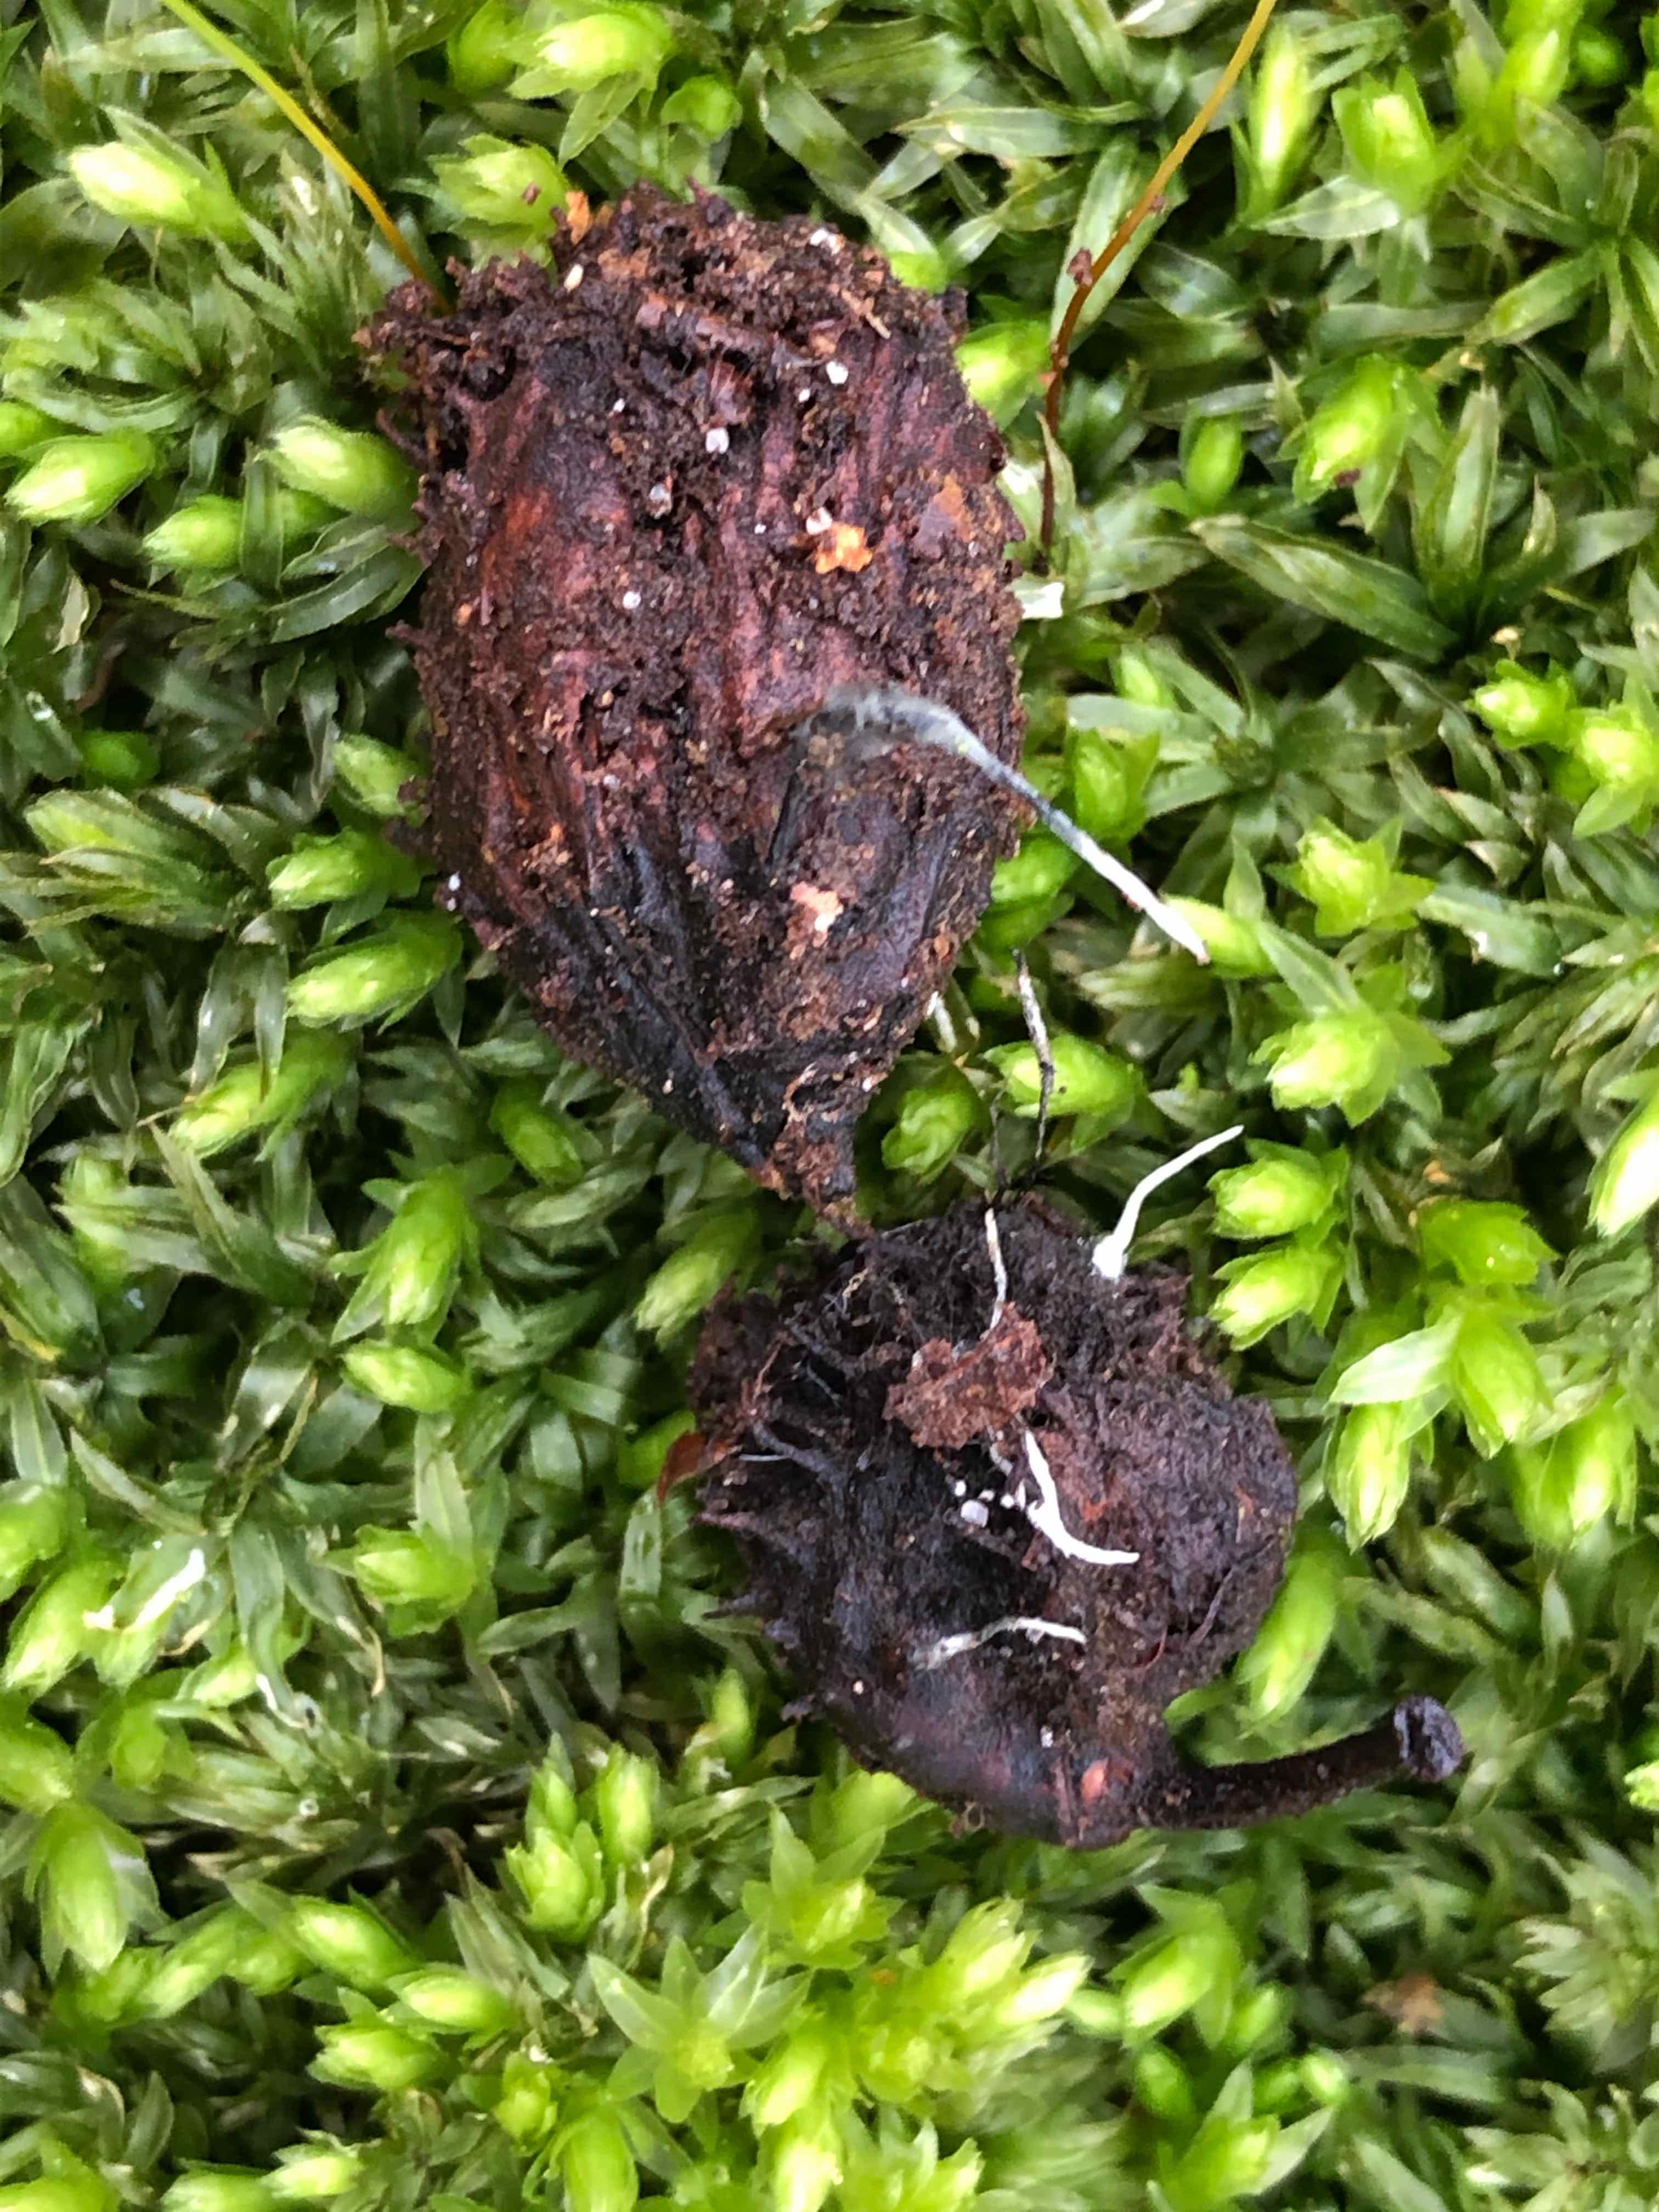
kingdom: Fungi
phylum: Ascomycota
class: Sordariomycetes
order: Xylariales
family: Xylariaceae
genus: Xylaria
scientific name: Xylaria carpophila
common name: bogskål-stødsvamp
